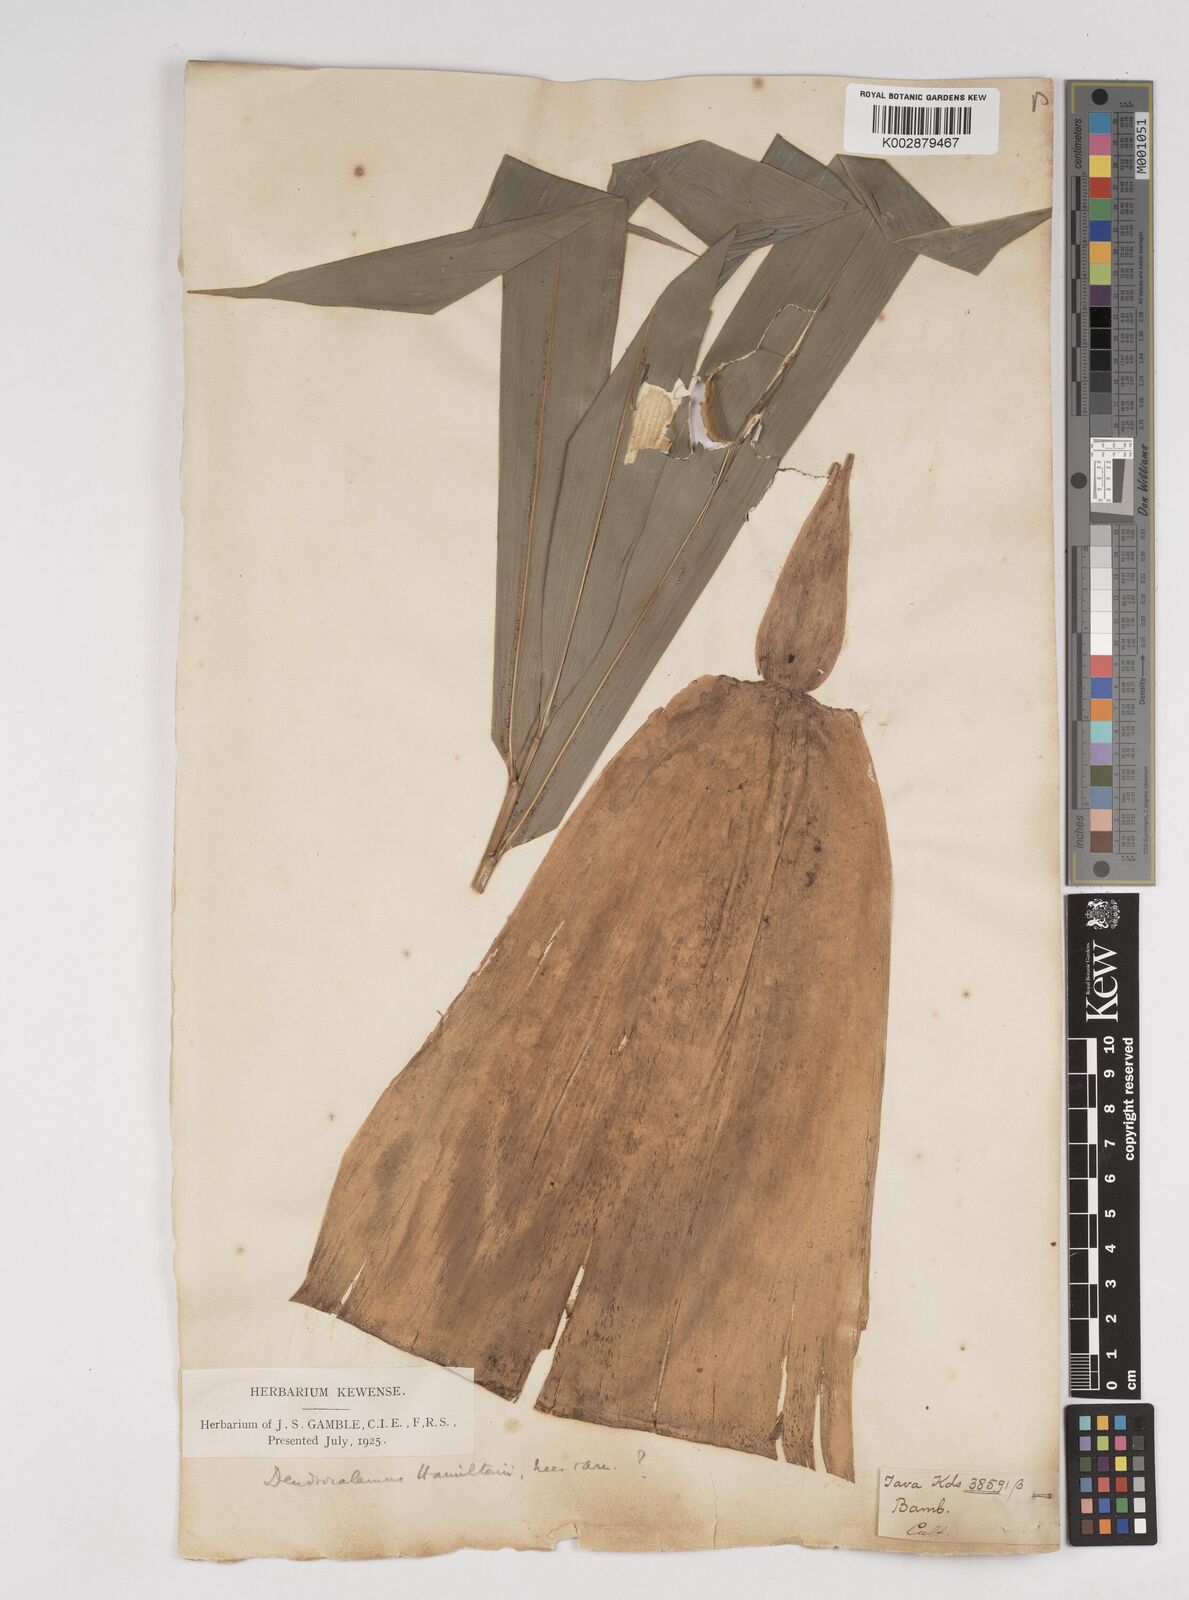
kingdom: Plantae
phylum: Tracheophyta
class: Liliopsida
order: Poales
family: Poaceae
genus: Dendrocalamus
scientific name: Dendrocalamus hamiltonii
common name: Tama bamboo
